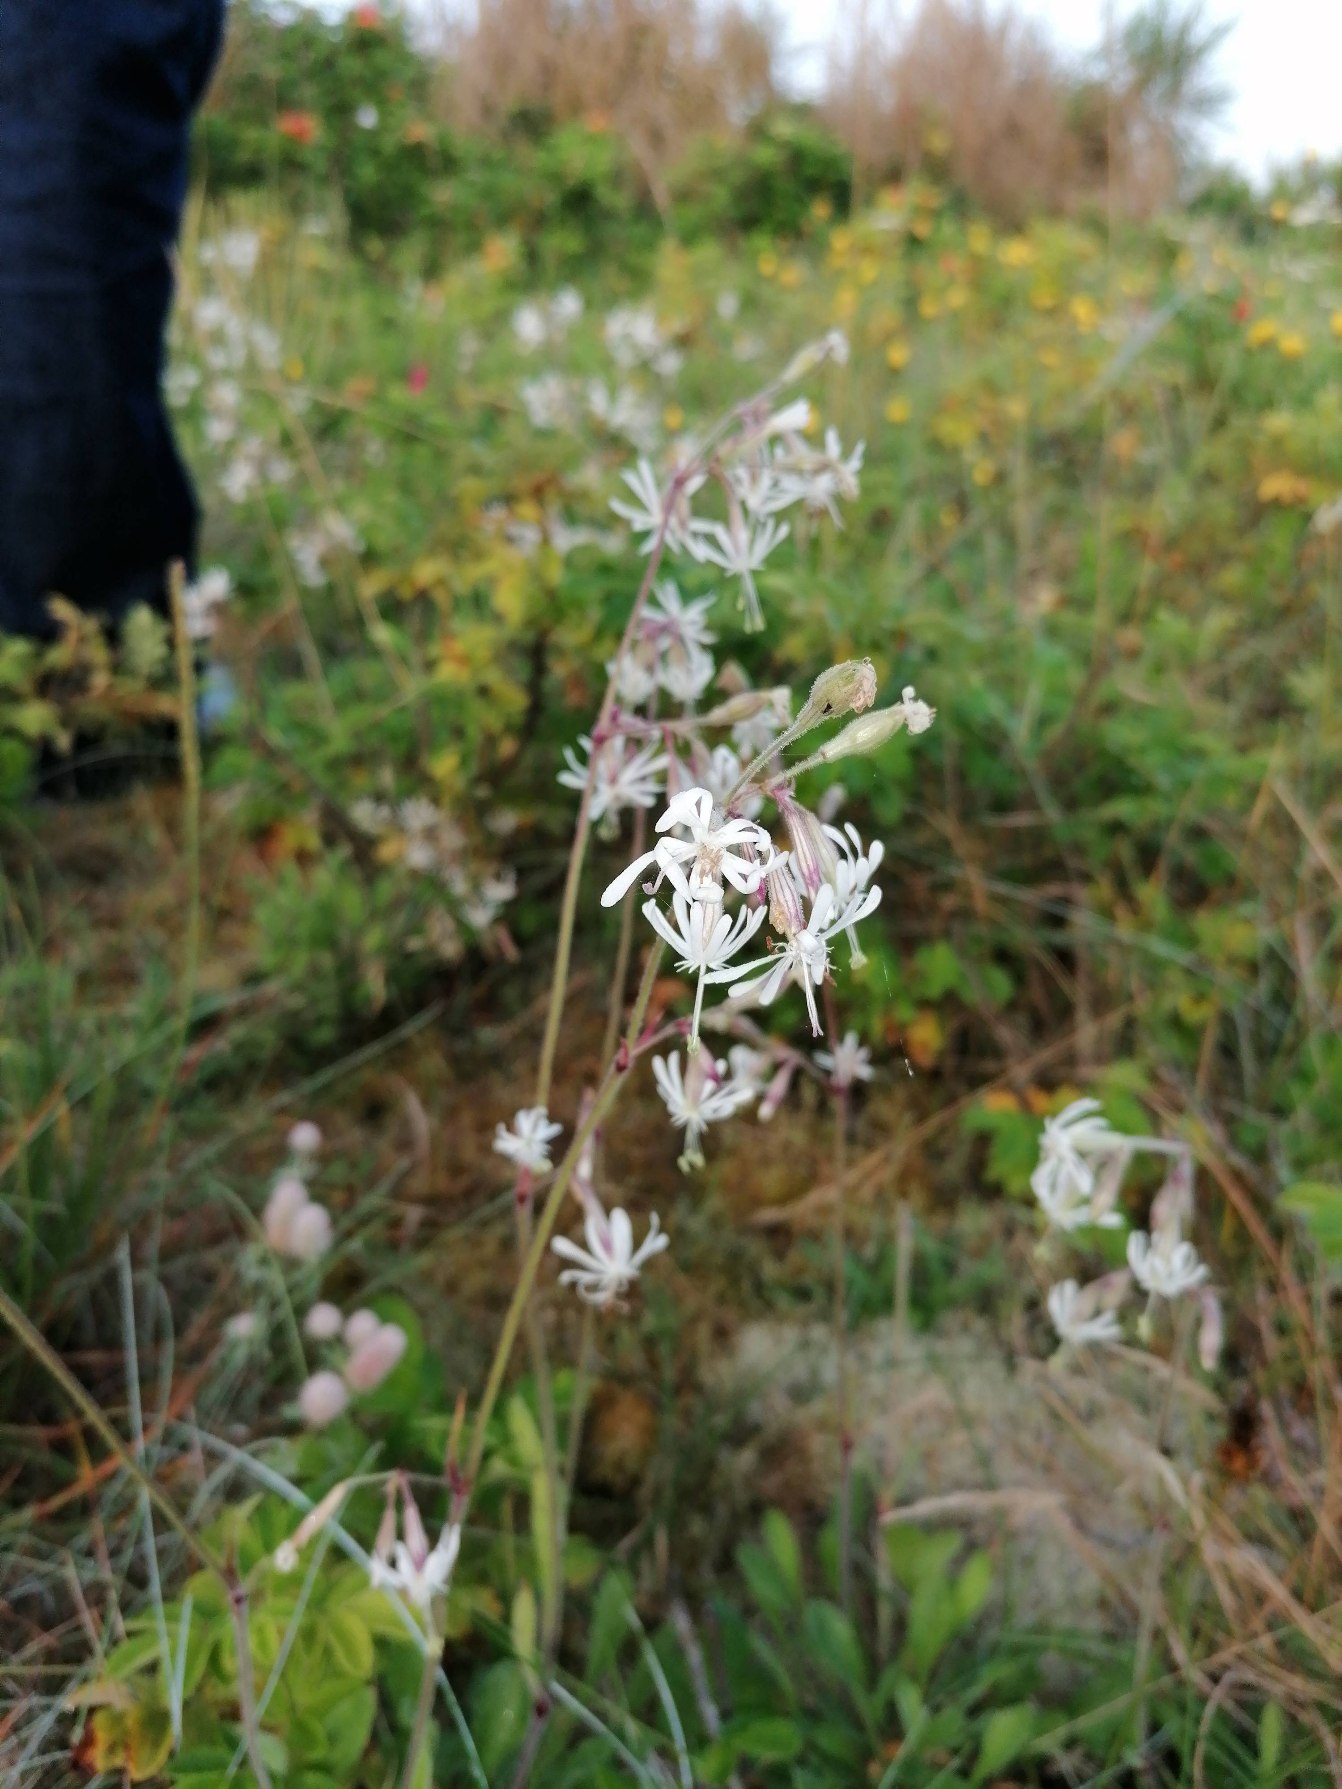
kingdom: Plantae
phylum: Tracheophyta
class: Magnoliopsida
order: Caryophyllales
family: Caryophyllaceae
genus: Silene
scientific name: Silene nutans
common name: Nikkende limurt
